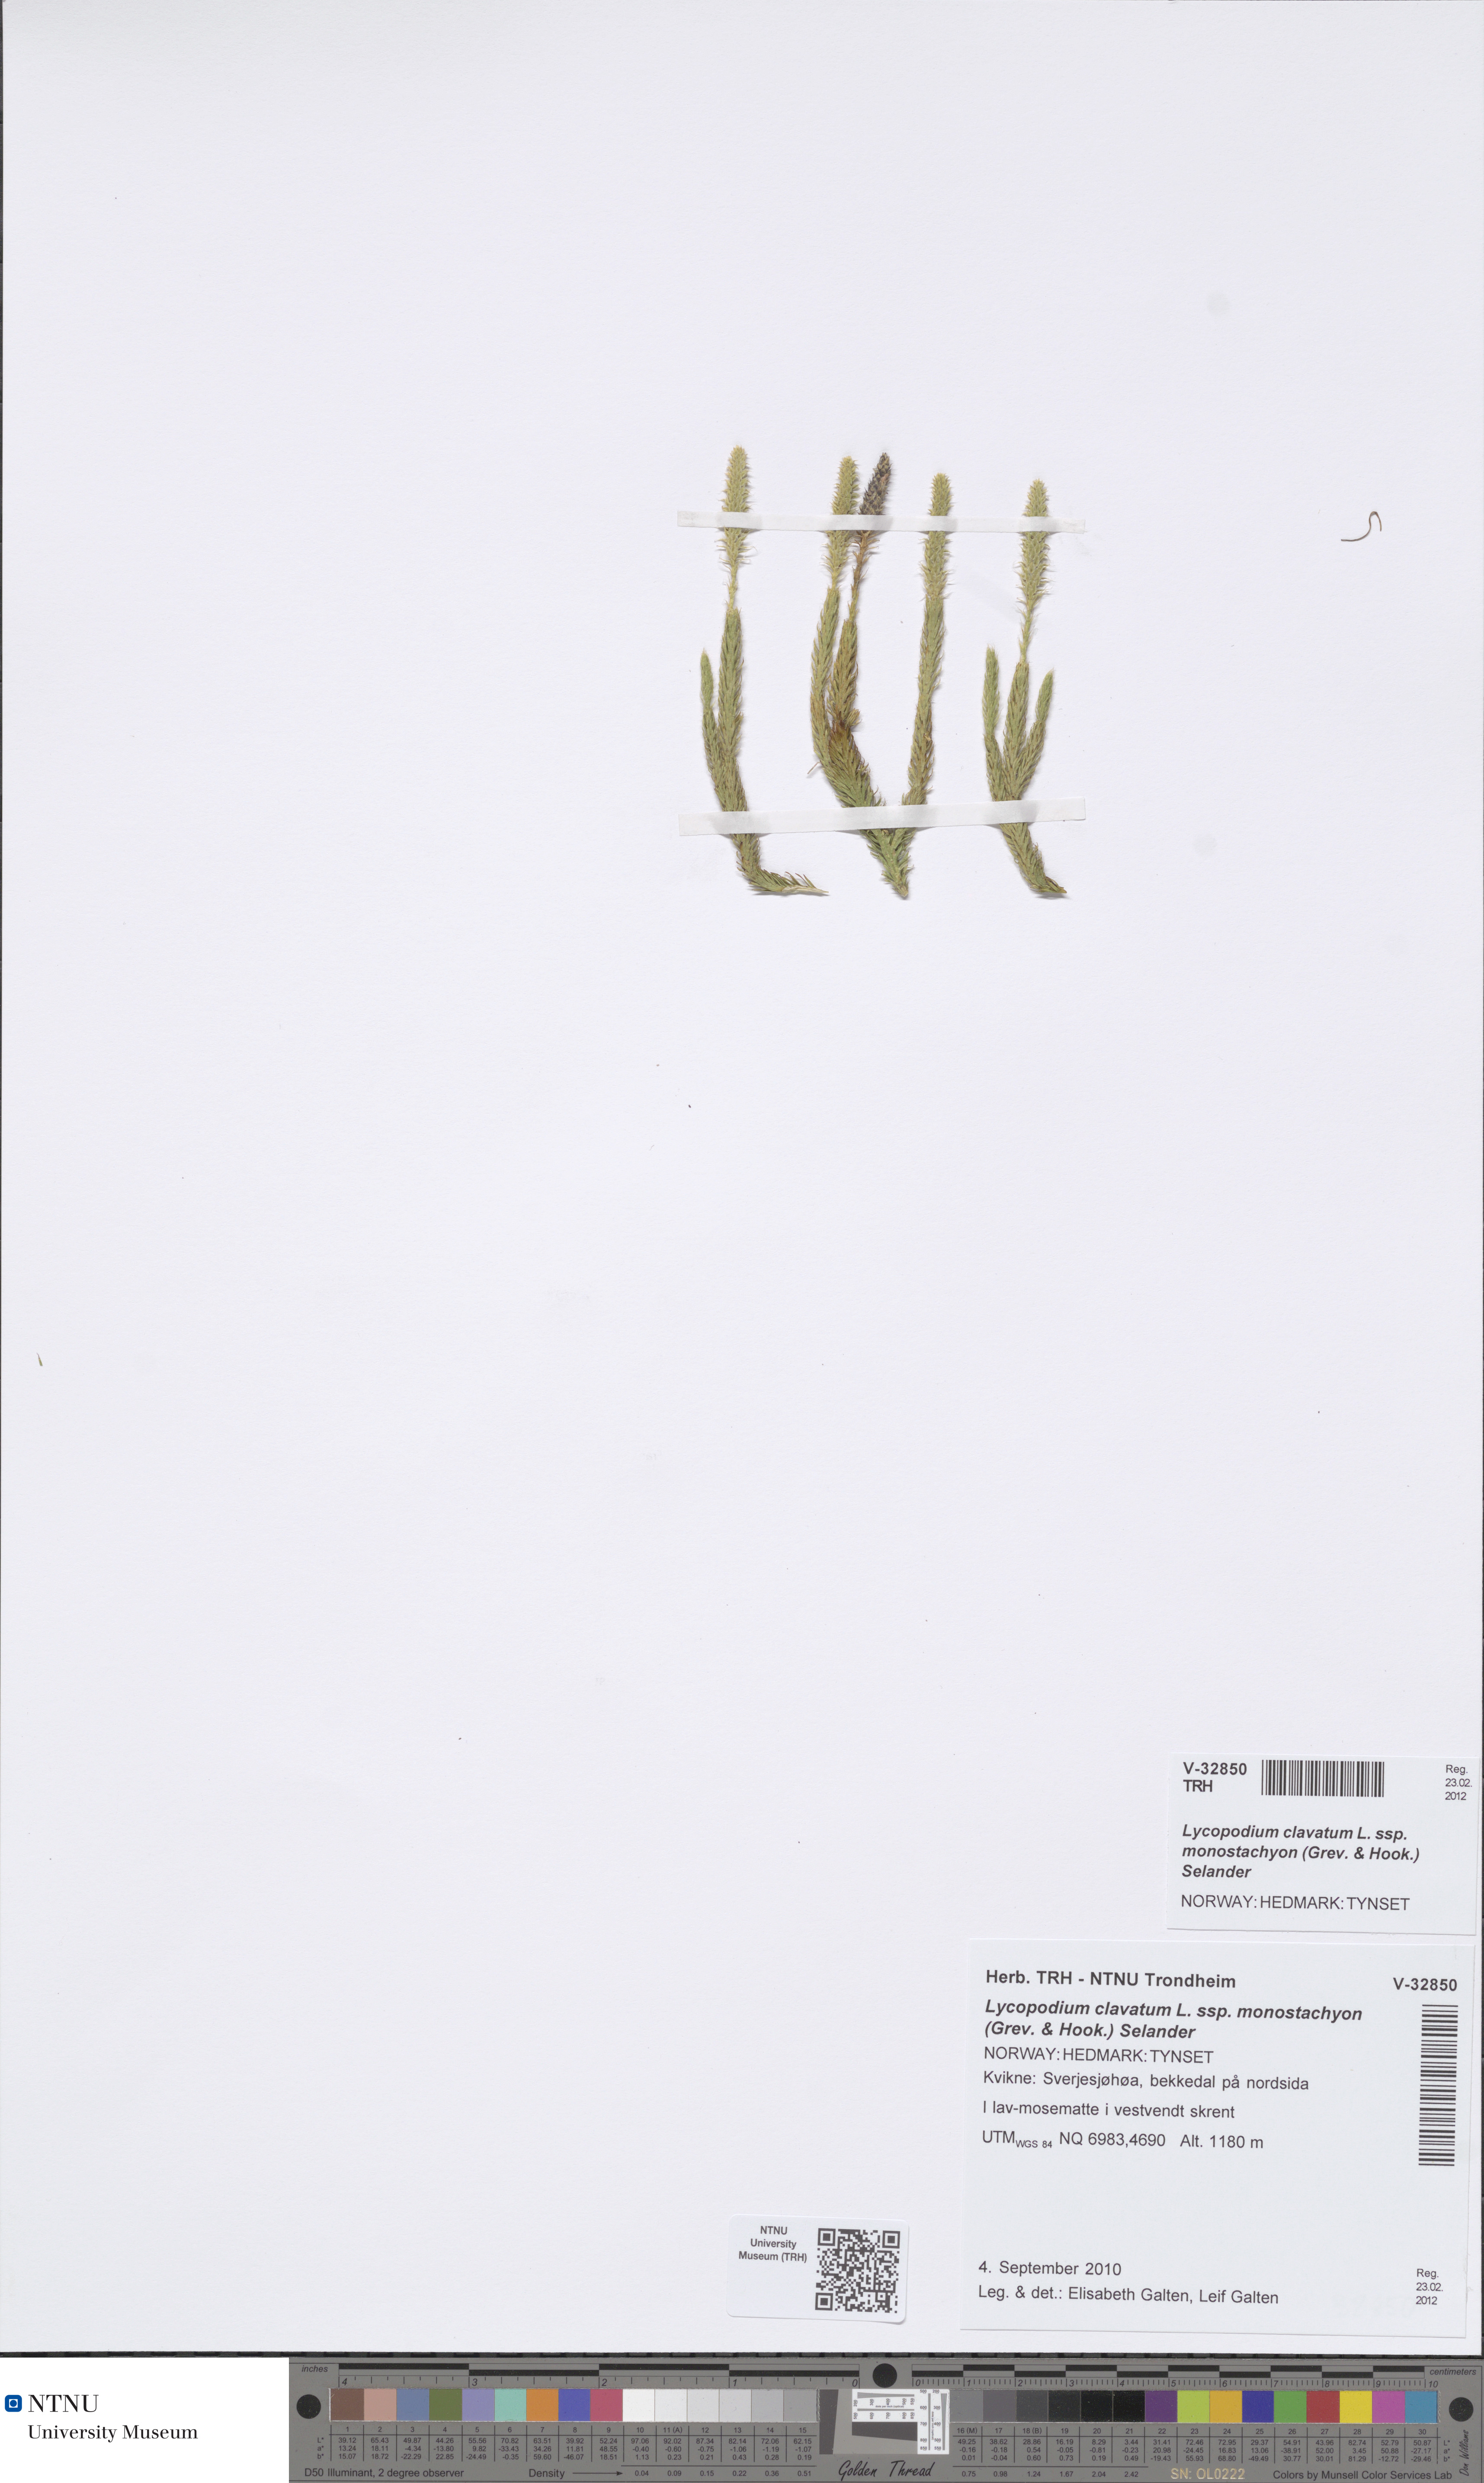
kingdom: Plantae
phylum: Tracheophyta
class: Lycopodiopsida
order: Lycopodiales
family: Lycopodiaceae
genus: Lycopodium
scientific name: Lycopodium lagopus
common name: One-cone clubmoss
